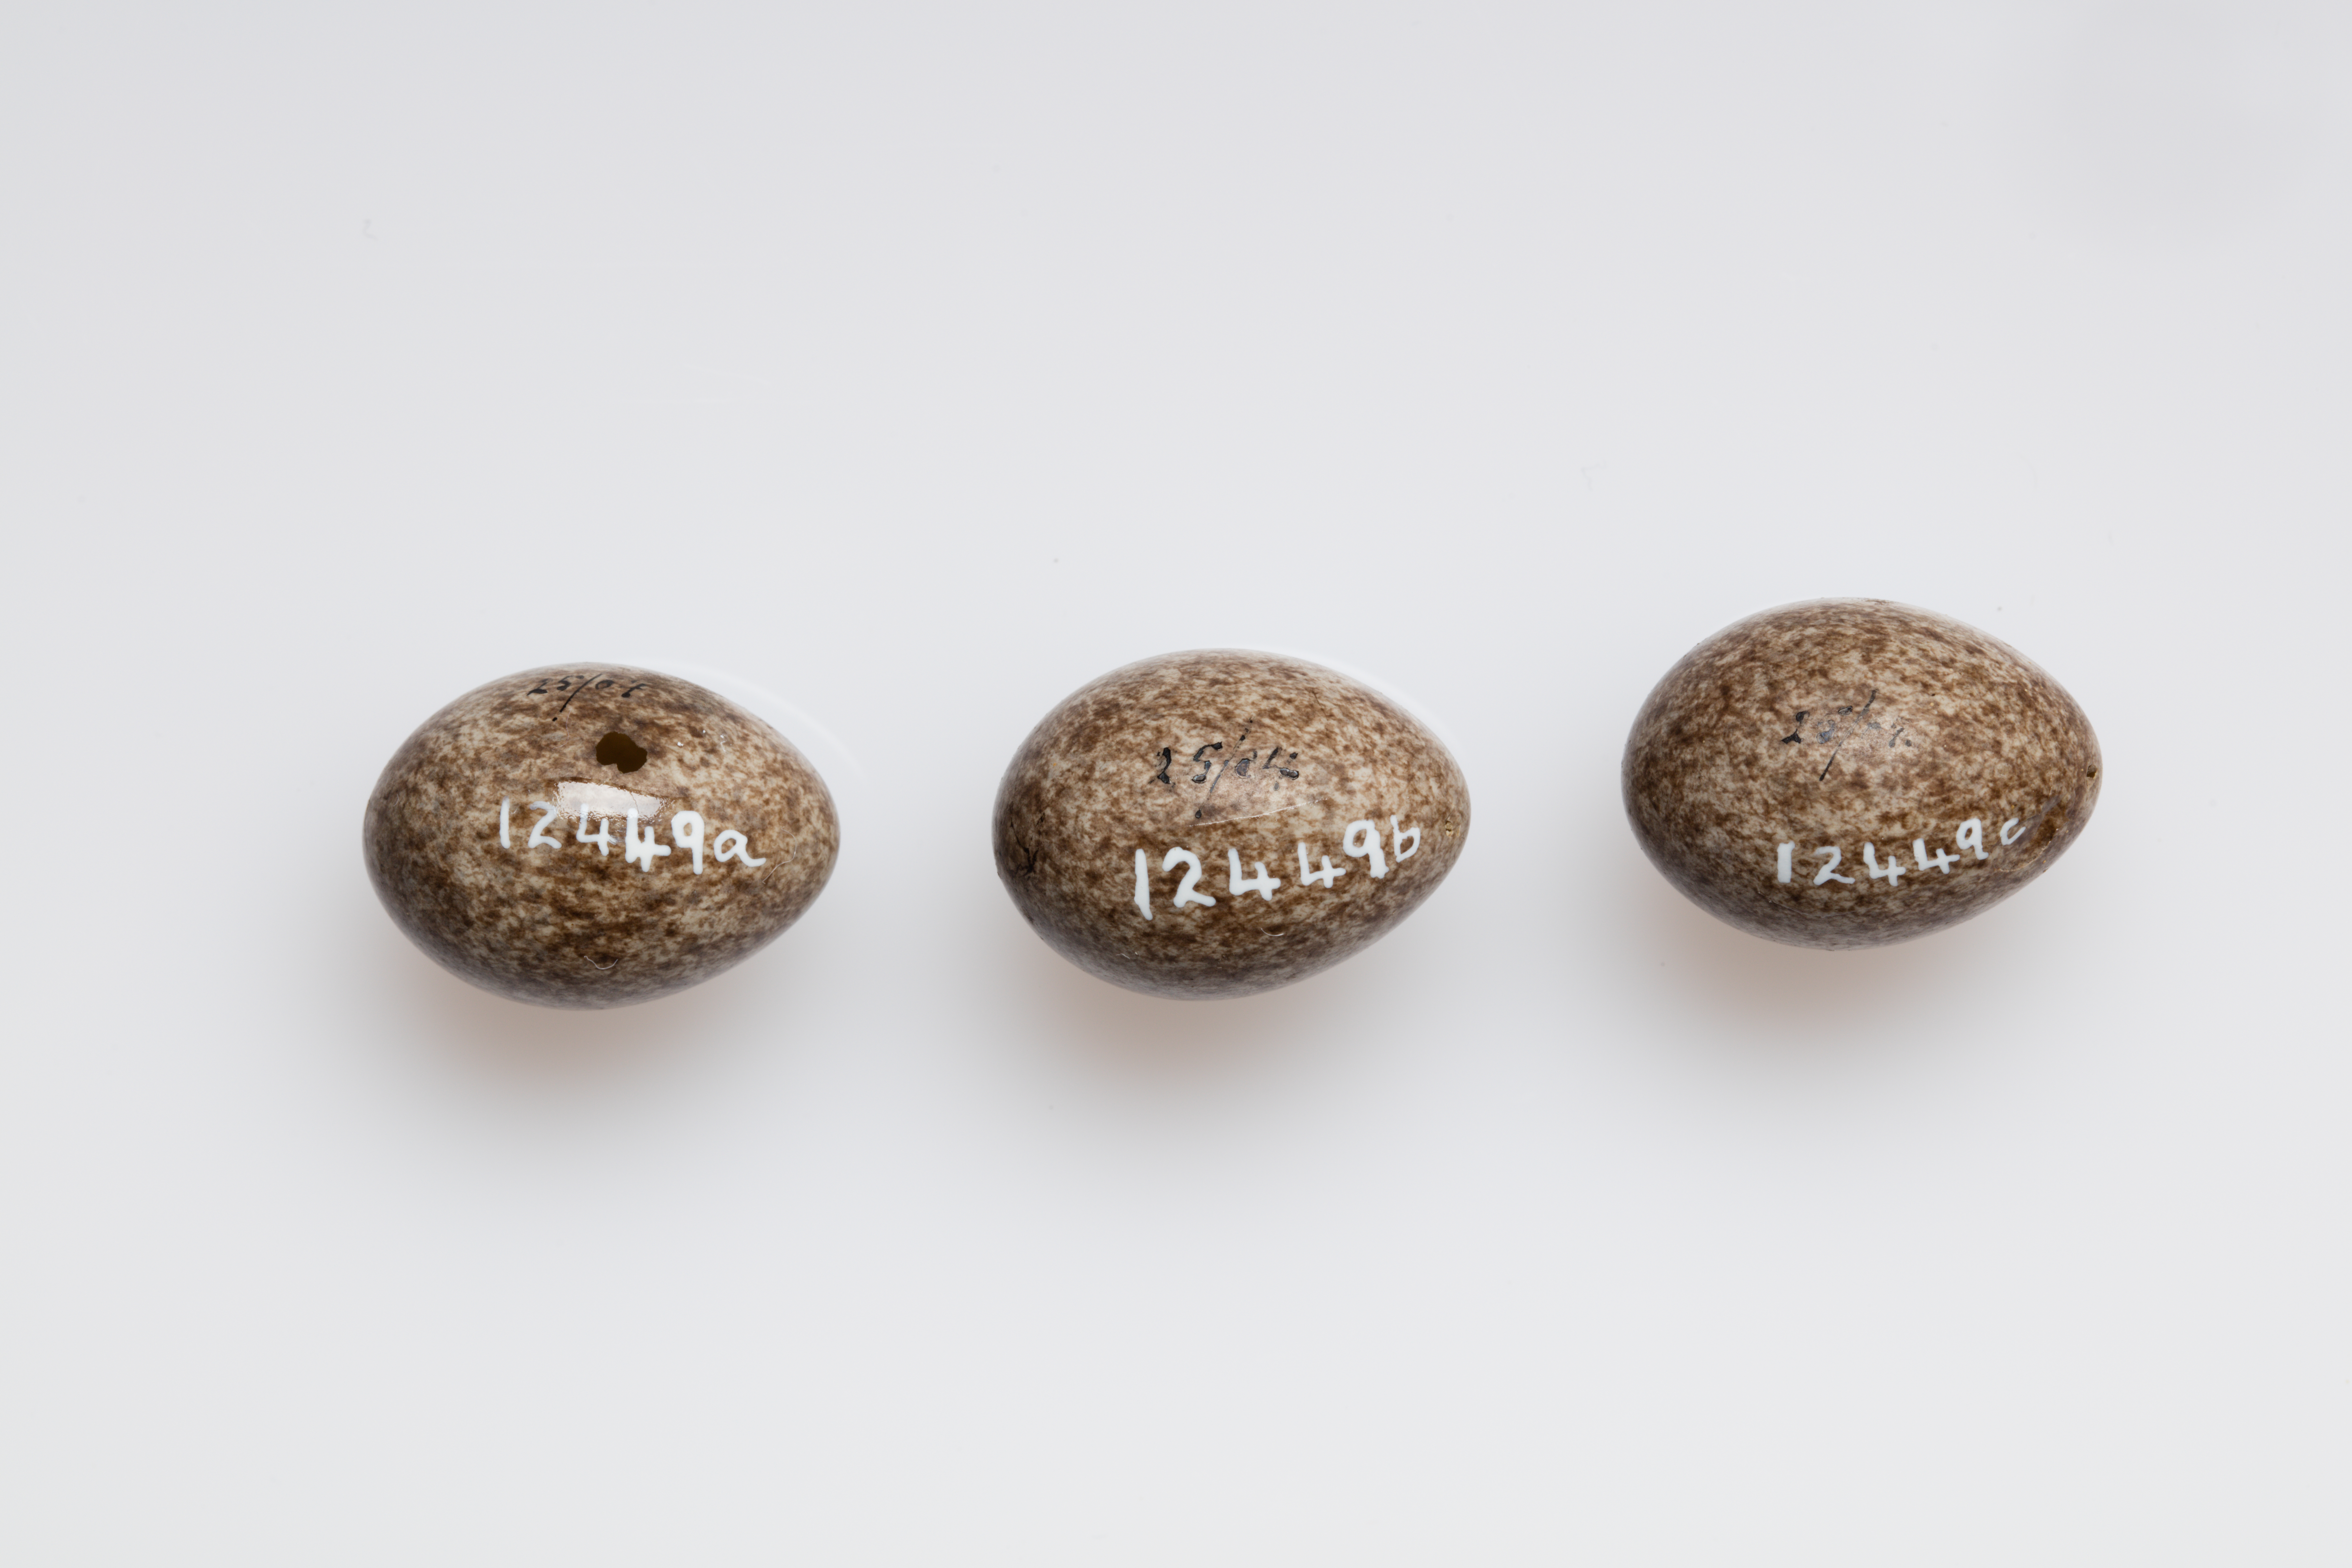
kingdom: Animalia
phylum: Chordata
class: Aves
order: Passeriformes
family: Motacillidae
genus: Anthus
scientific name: Anthus pratensis
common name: Meadow pipit
